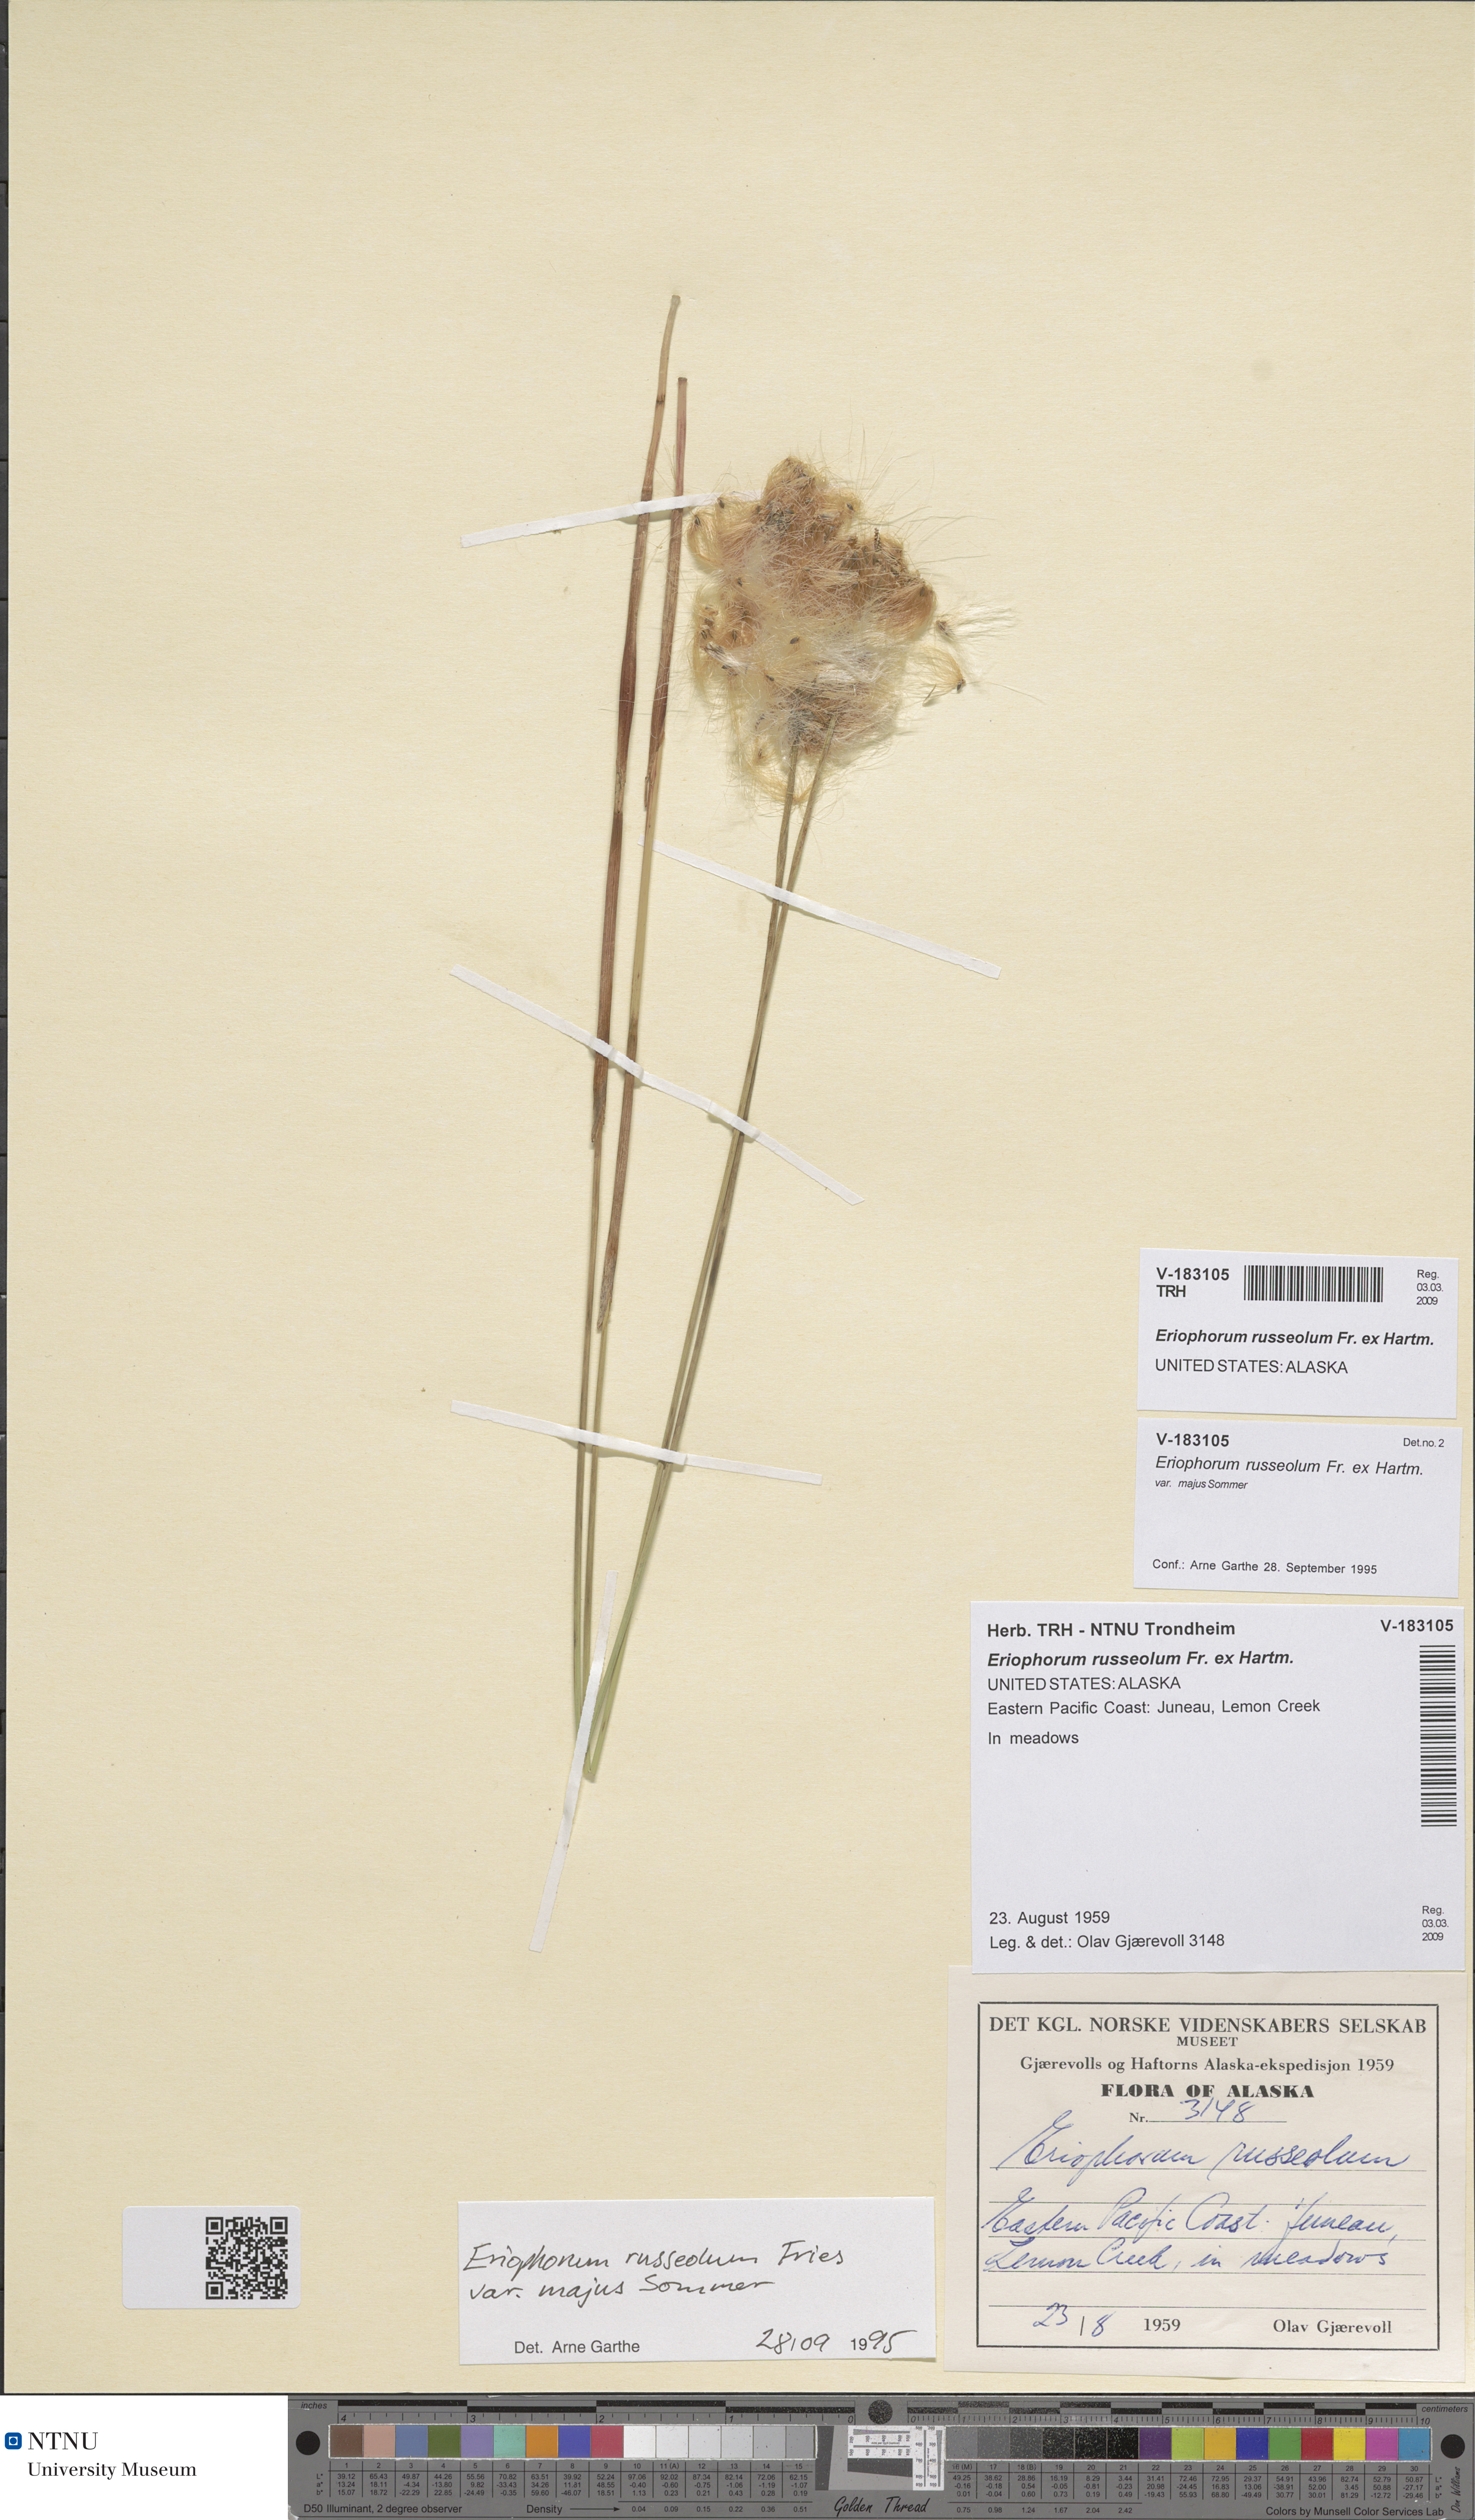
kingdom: Plantae
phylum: Tracheophyta
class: Liliopsida
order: Poales
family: Cyperaceae
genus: Eriophorum
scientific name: Eriophorum russeolum
